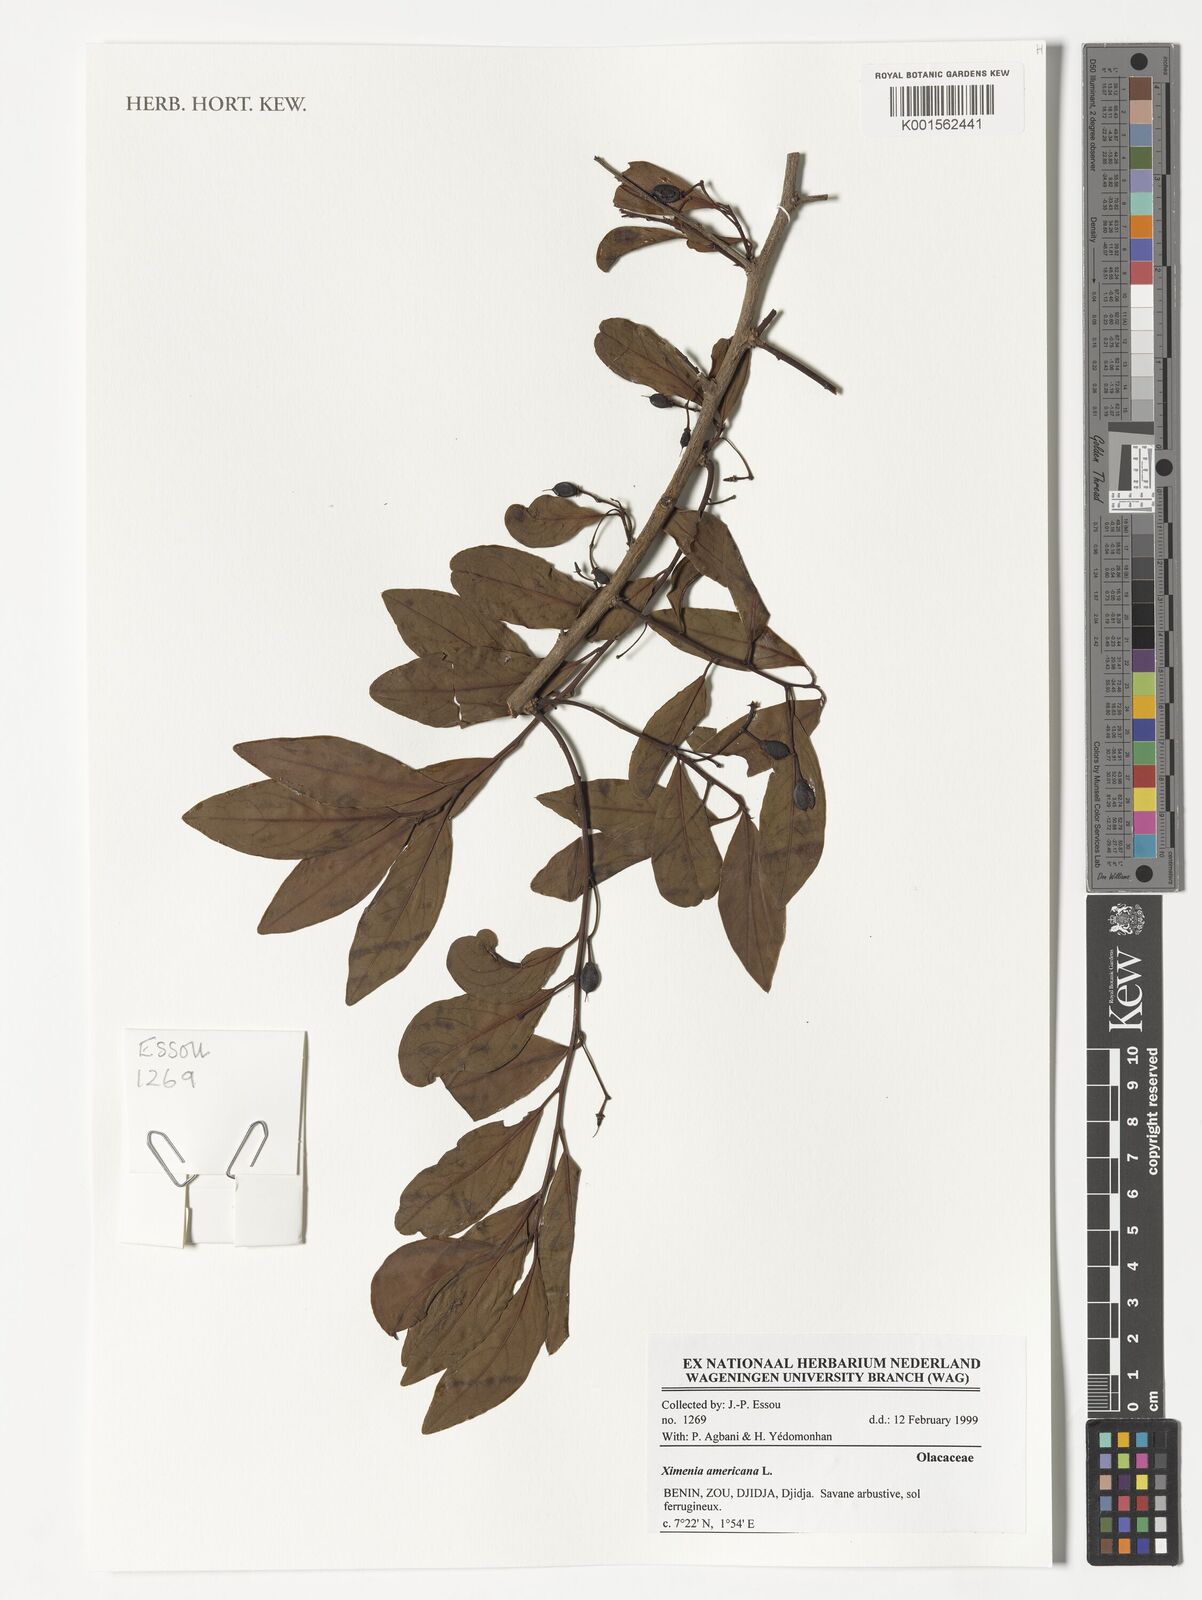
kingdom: Plantae
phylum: Tracheophyta
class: Magnoliopsida
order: Santalales
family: Ximeniaceae
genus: Ximenia
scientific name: Ximenia americana
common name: Tallowwood
